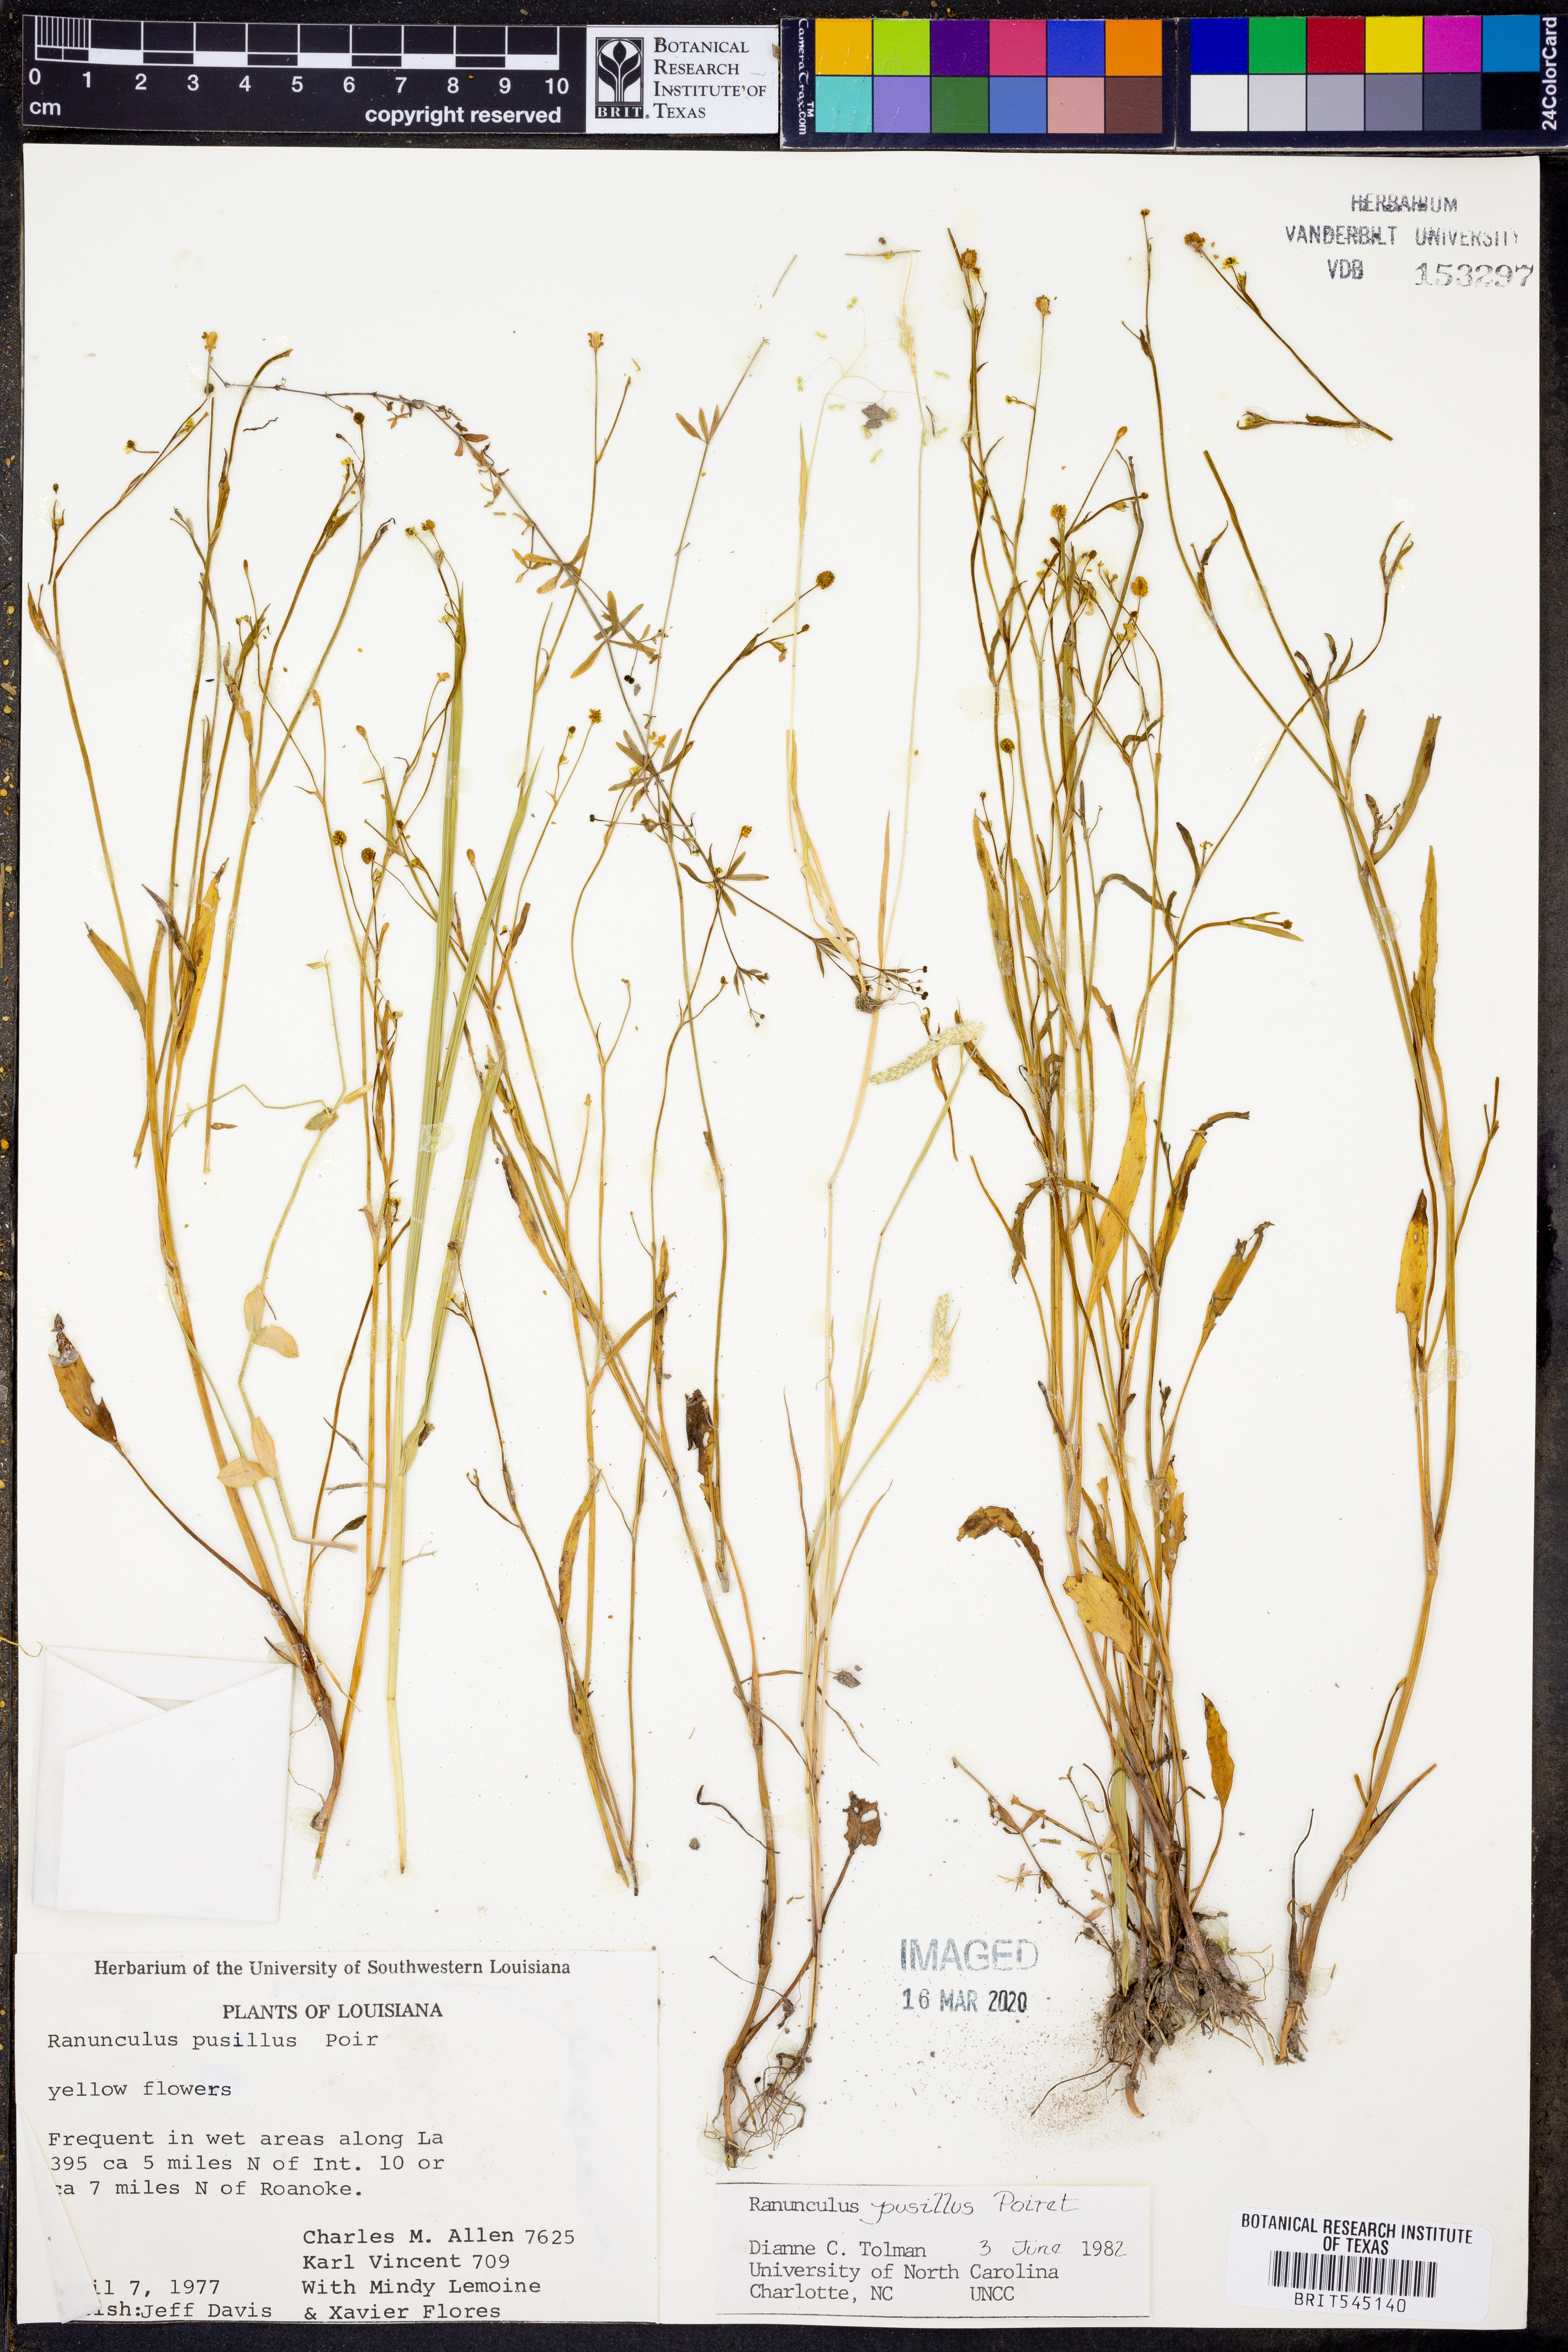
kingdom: Plantae
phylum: Tracheophyta
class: Magnoliopsida
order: Ranunculales
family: Ranunculaceae
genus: Ranunculus
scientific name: Ranunculus pusillus
